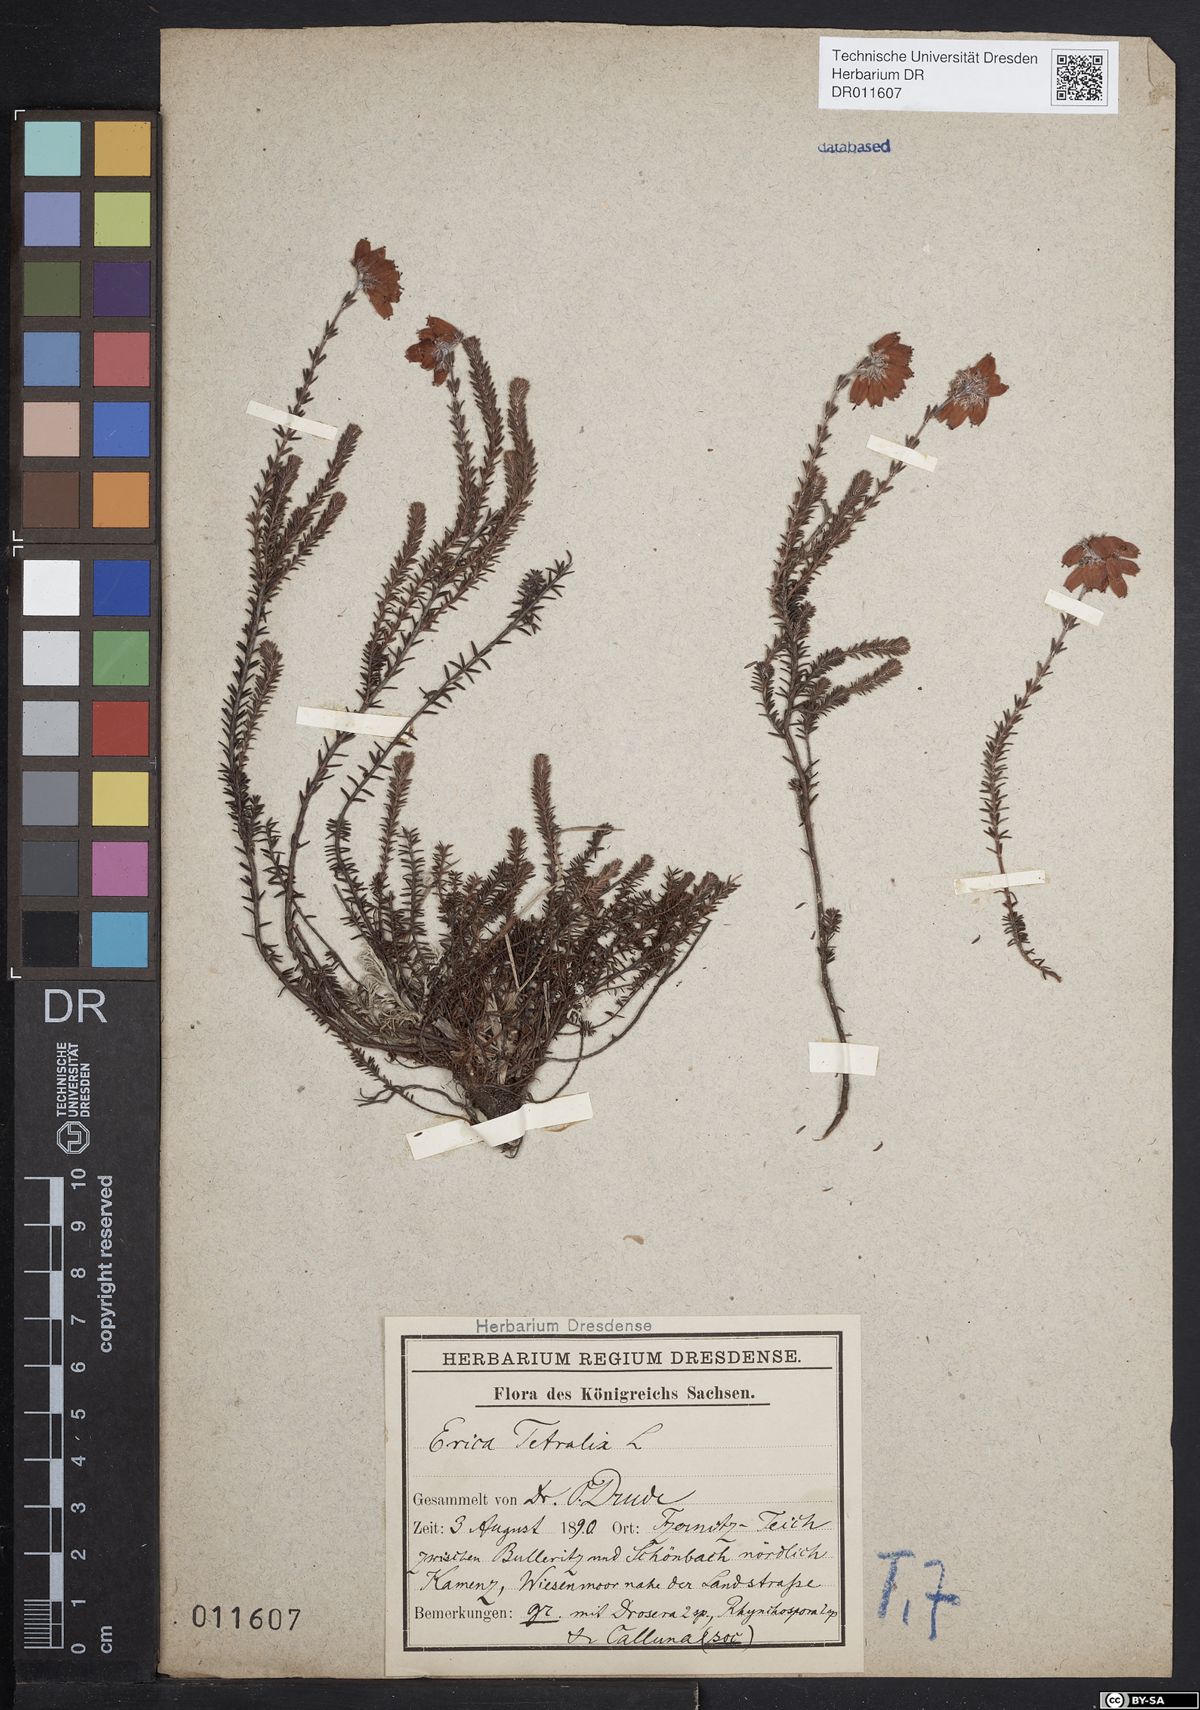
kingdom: Plantae
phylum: Tracheophyta
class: Magnoliopsida
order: Ericales
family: Ericaceae
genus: Erica
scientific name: Erica tetralix
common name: Cross-leaved heath
